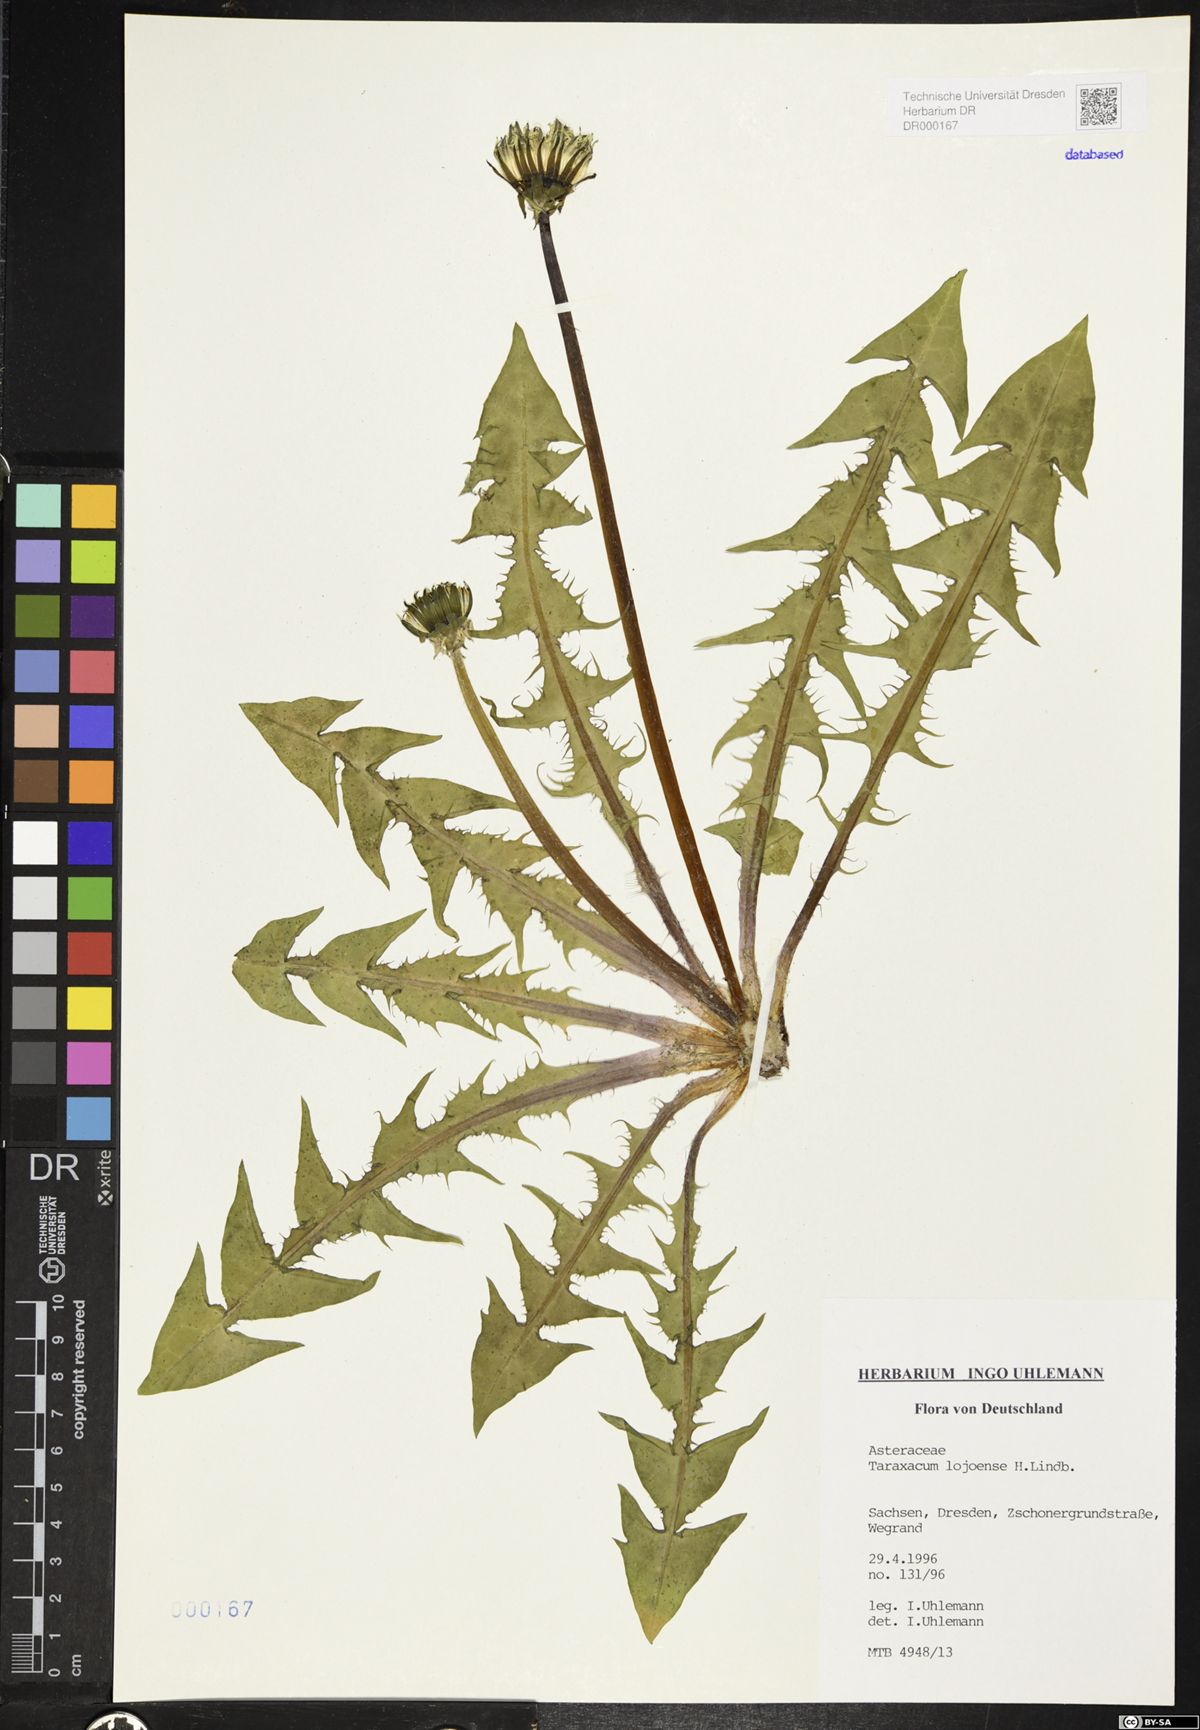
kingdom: Plantae
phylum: Tracheophyta
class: Magnoliopsida
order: Asterales
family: Asteraceae
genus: Taraxacum
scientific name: Taraxacum debrayi
